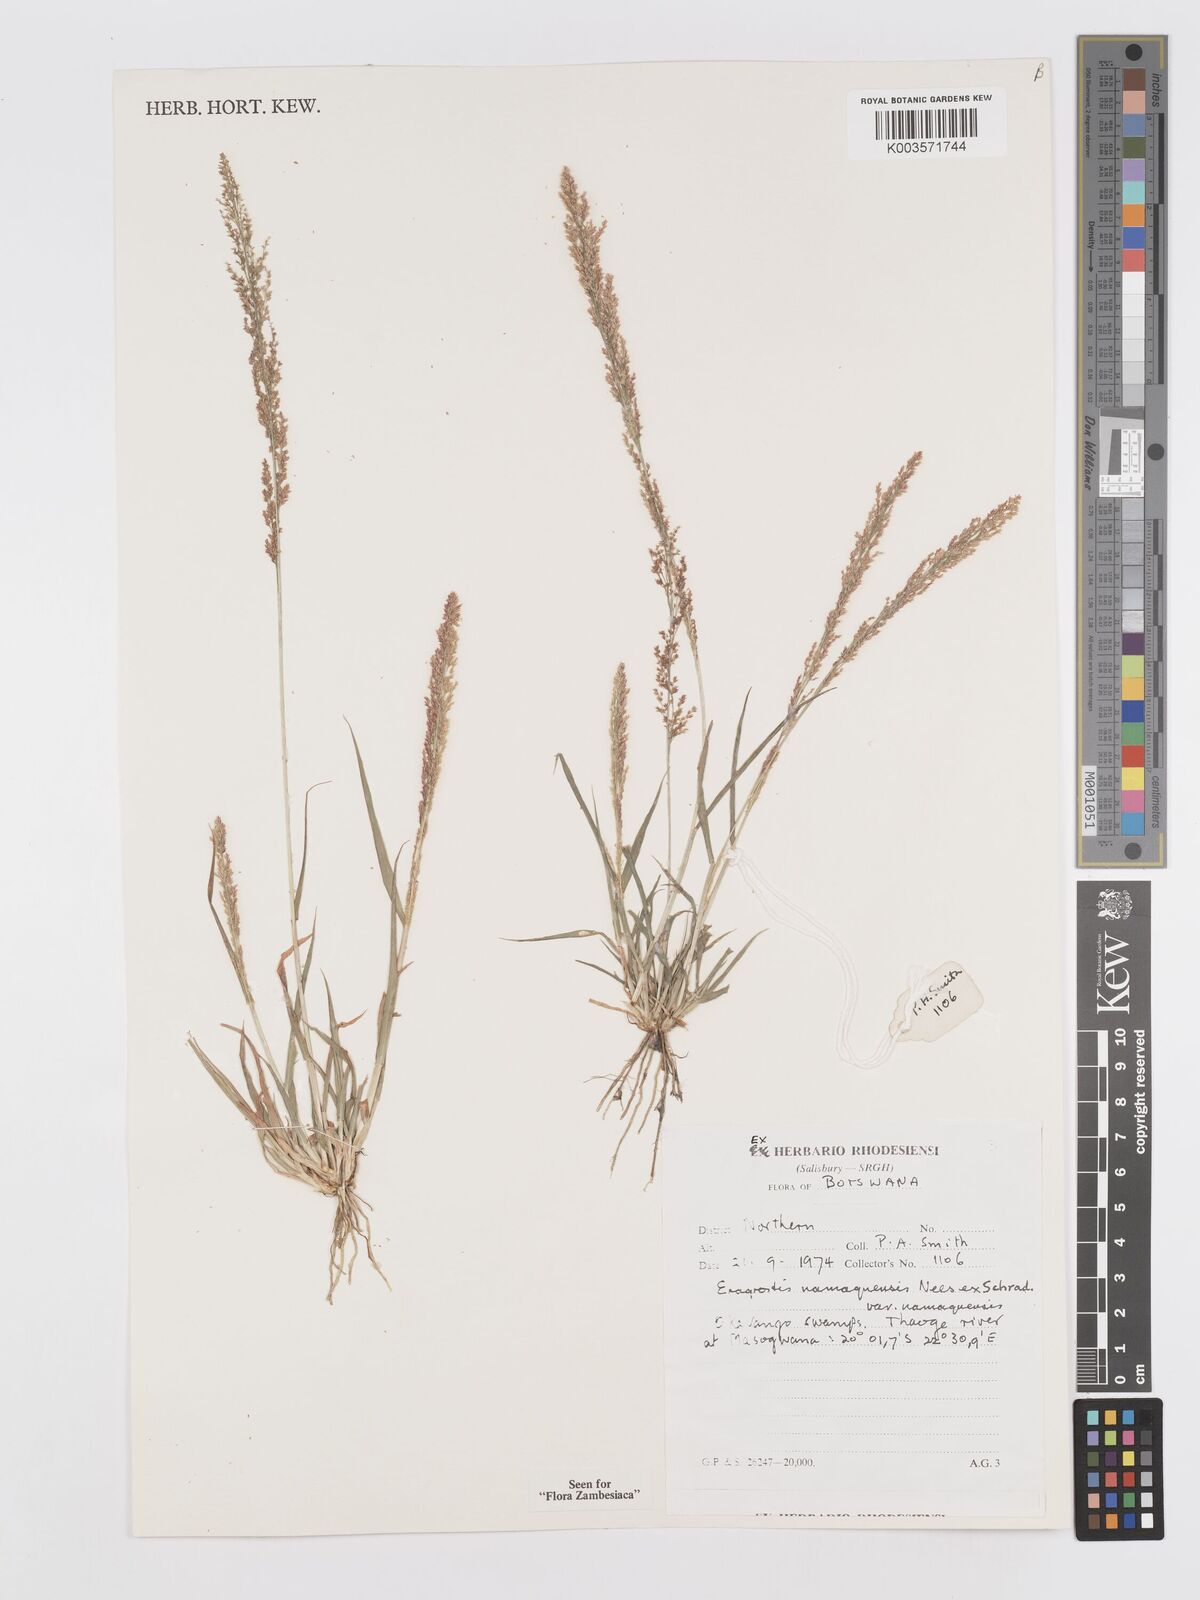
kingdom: Plantae
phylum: Tracheophyta
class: Liliopsida
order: Poales
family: Poaceae
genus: Eragrostis
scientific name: Eragrostis japonica
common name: Pond lovegrass
